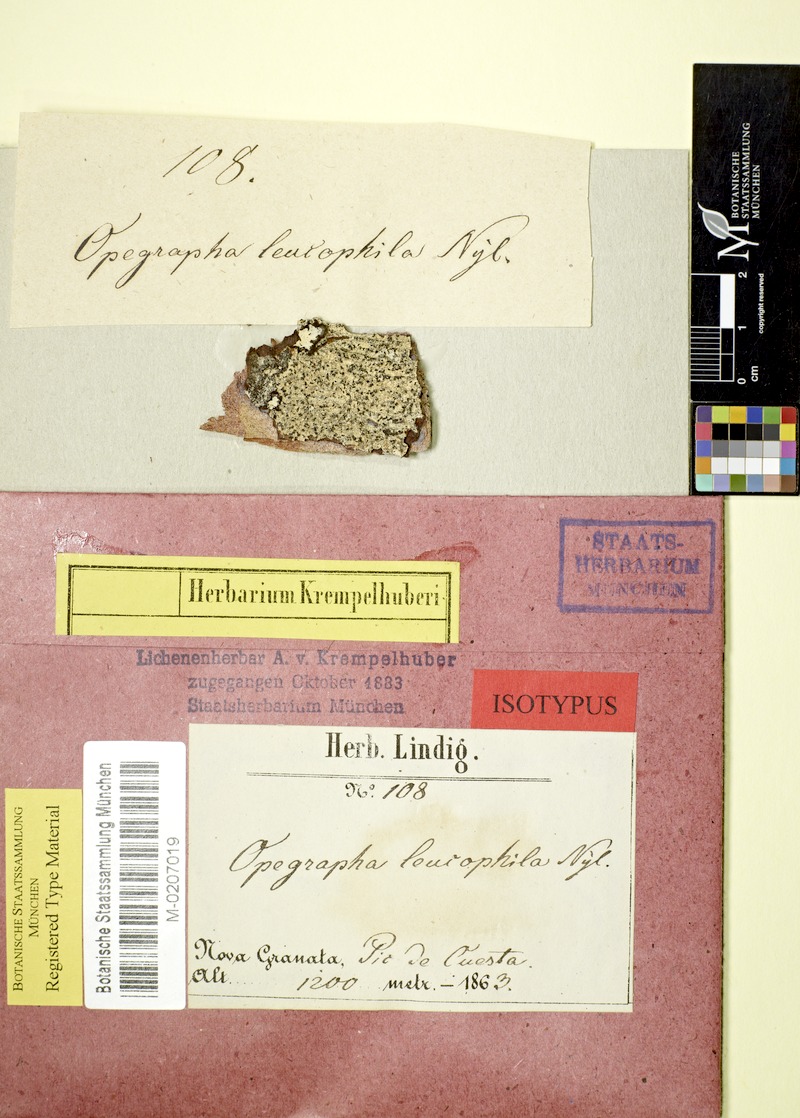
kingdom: Fungi
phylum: Ascomycota
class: Arthoniomycetes
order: Arthoniales
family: Roccellaceae
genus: Ancistrosporella
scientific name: Ancistrosporella leucophila
